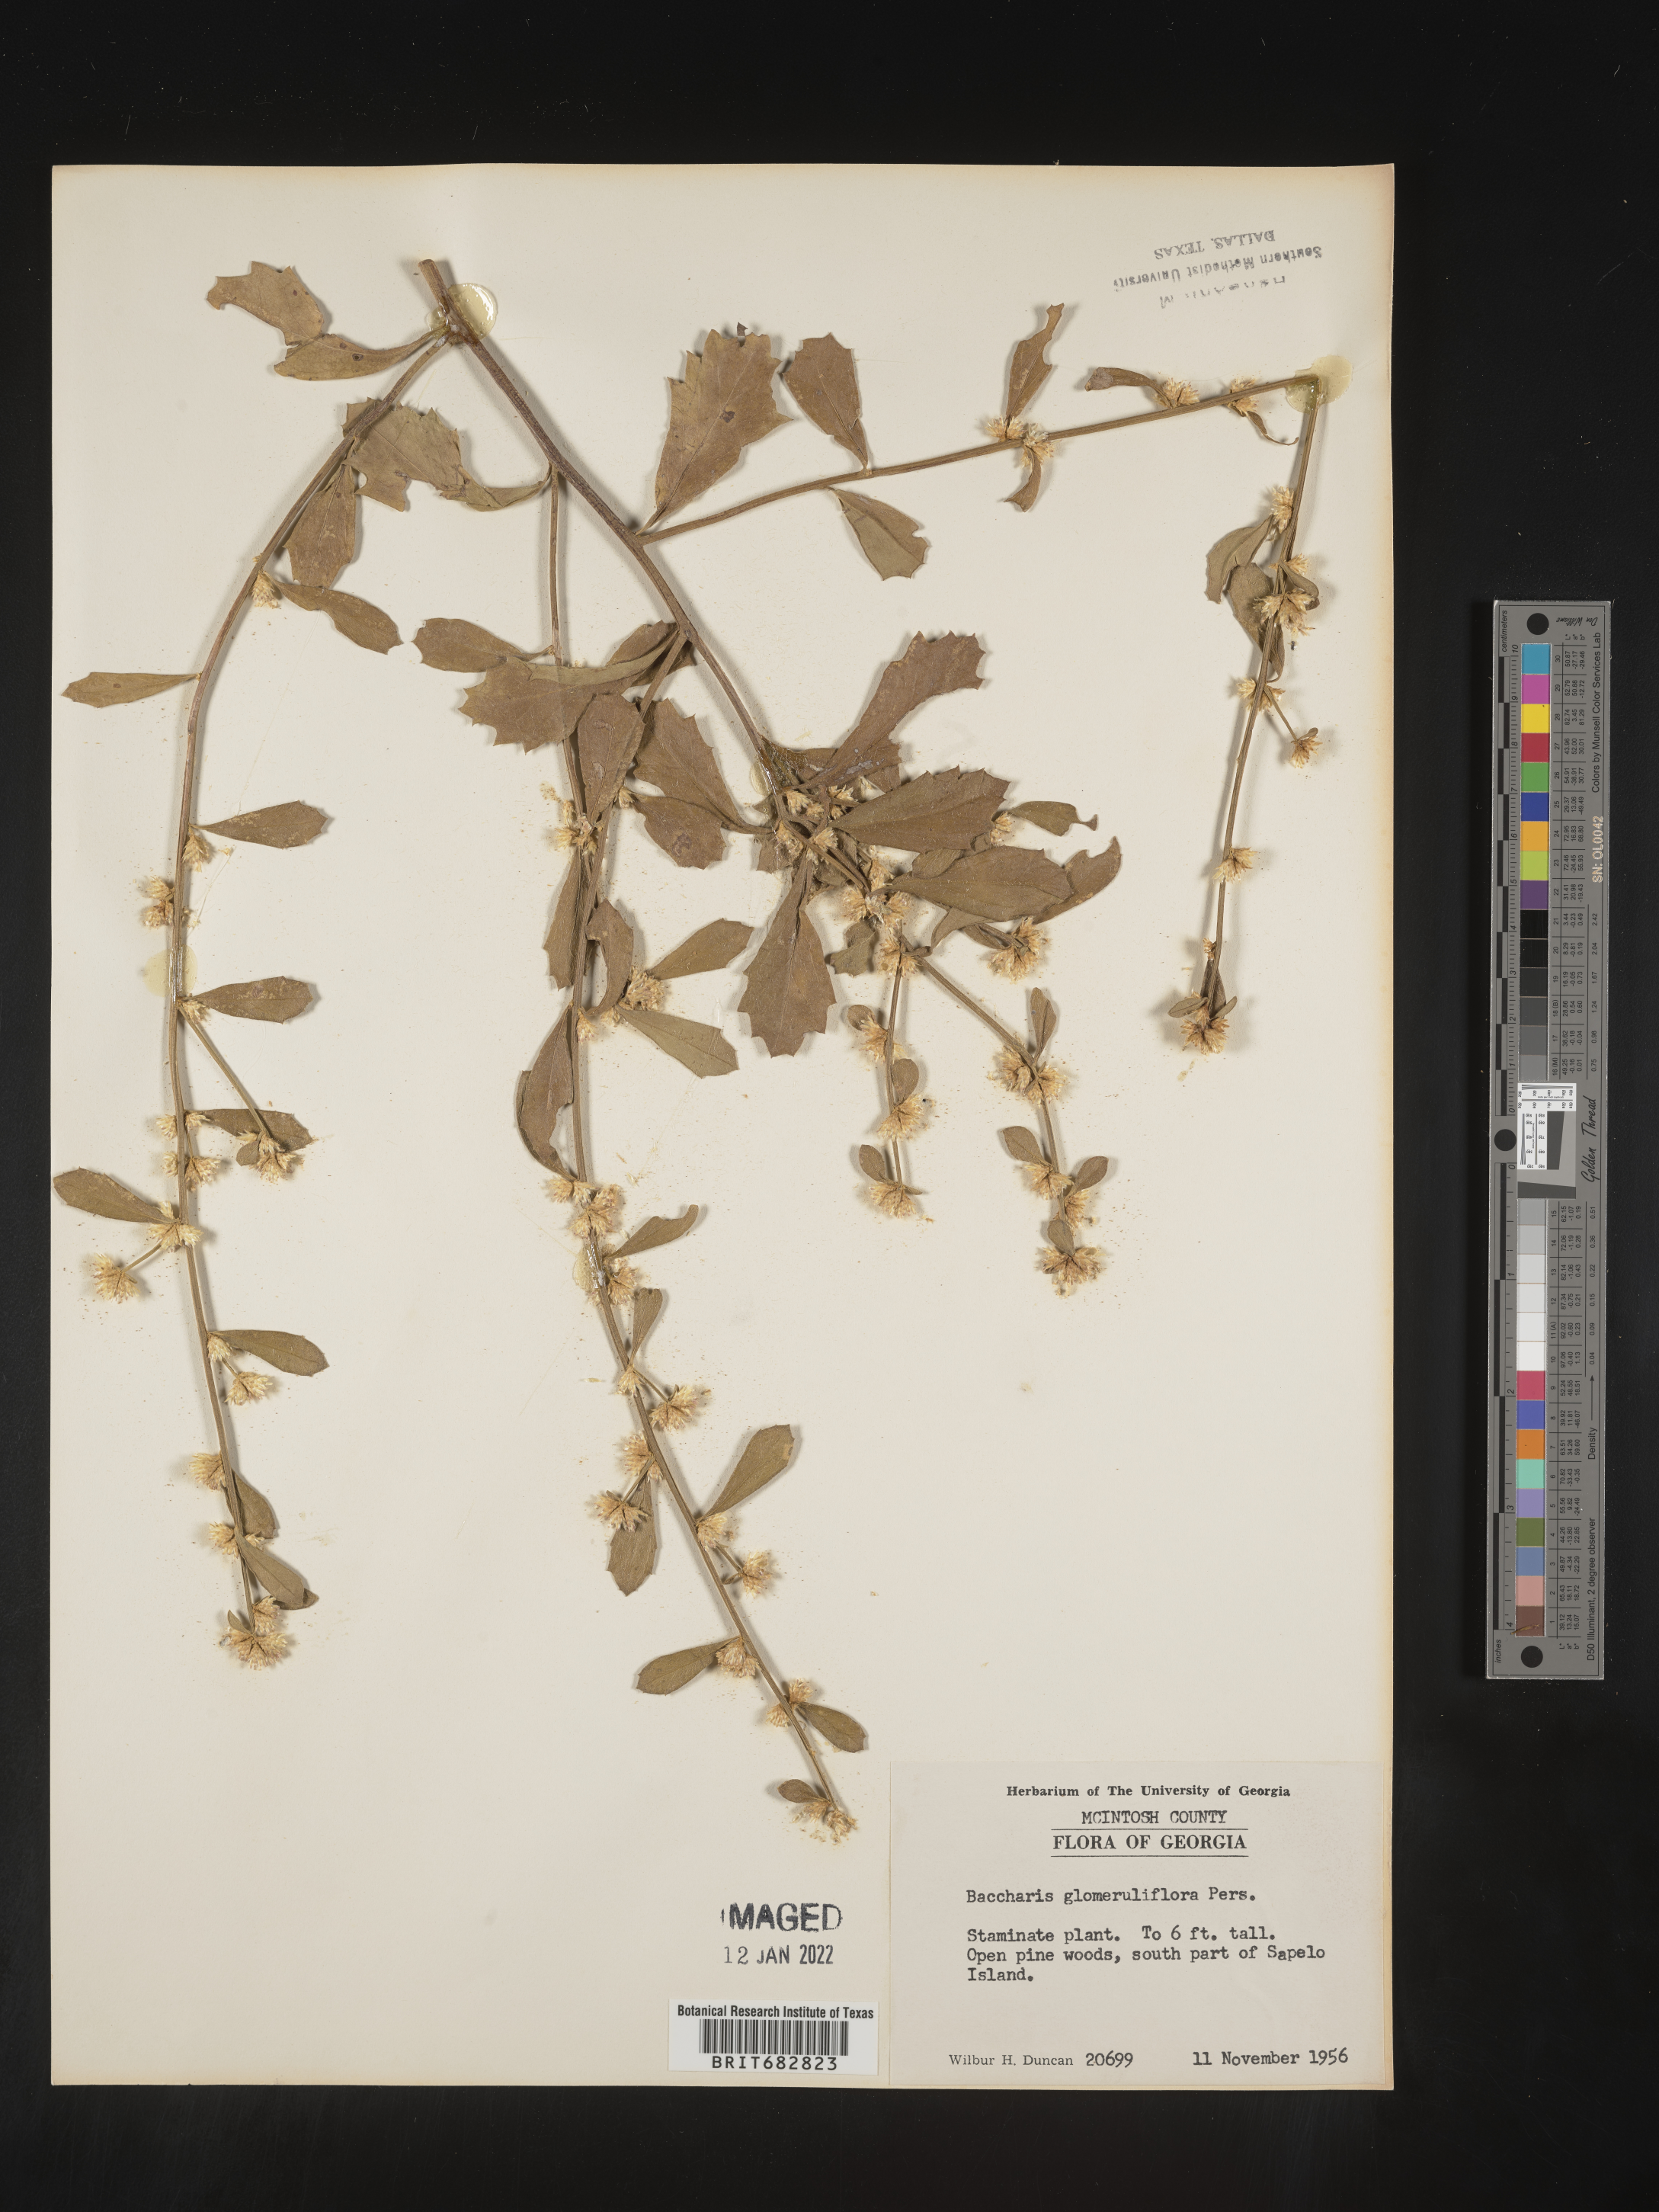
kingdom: Plantae
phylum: Tracheophyta
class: Magnoliopsida
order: Asterales
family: Asteraceae
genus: Baccharis
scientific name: Baccharis glomeruliflora
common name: Silverling groundsel bush
